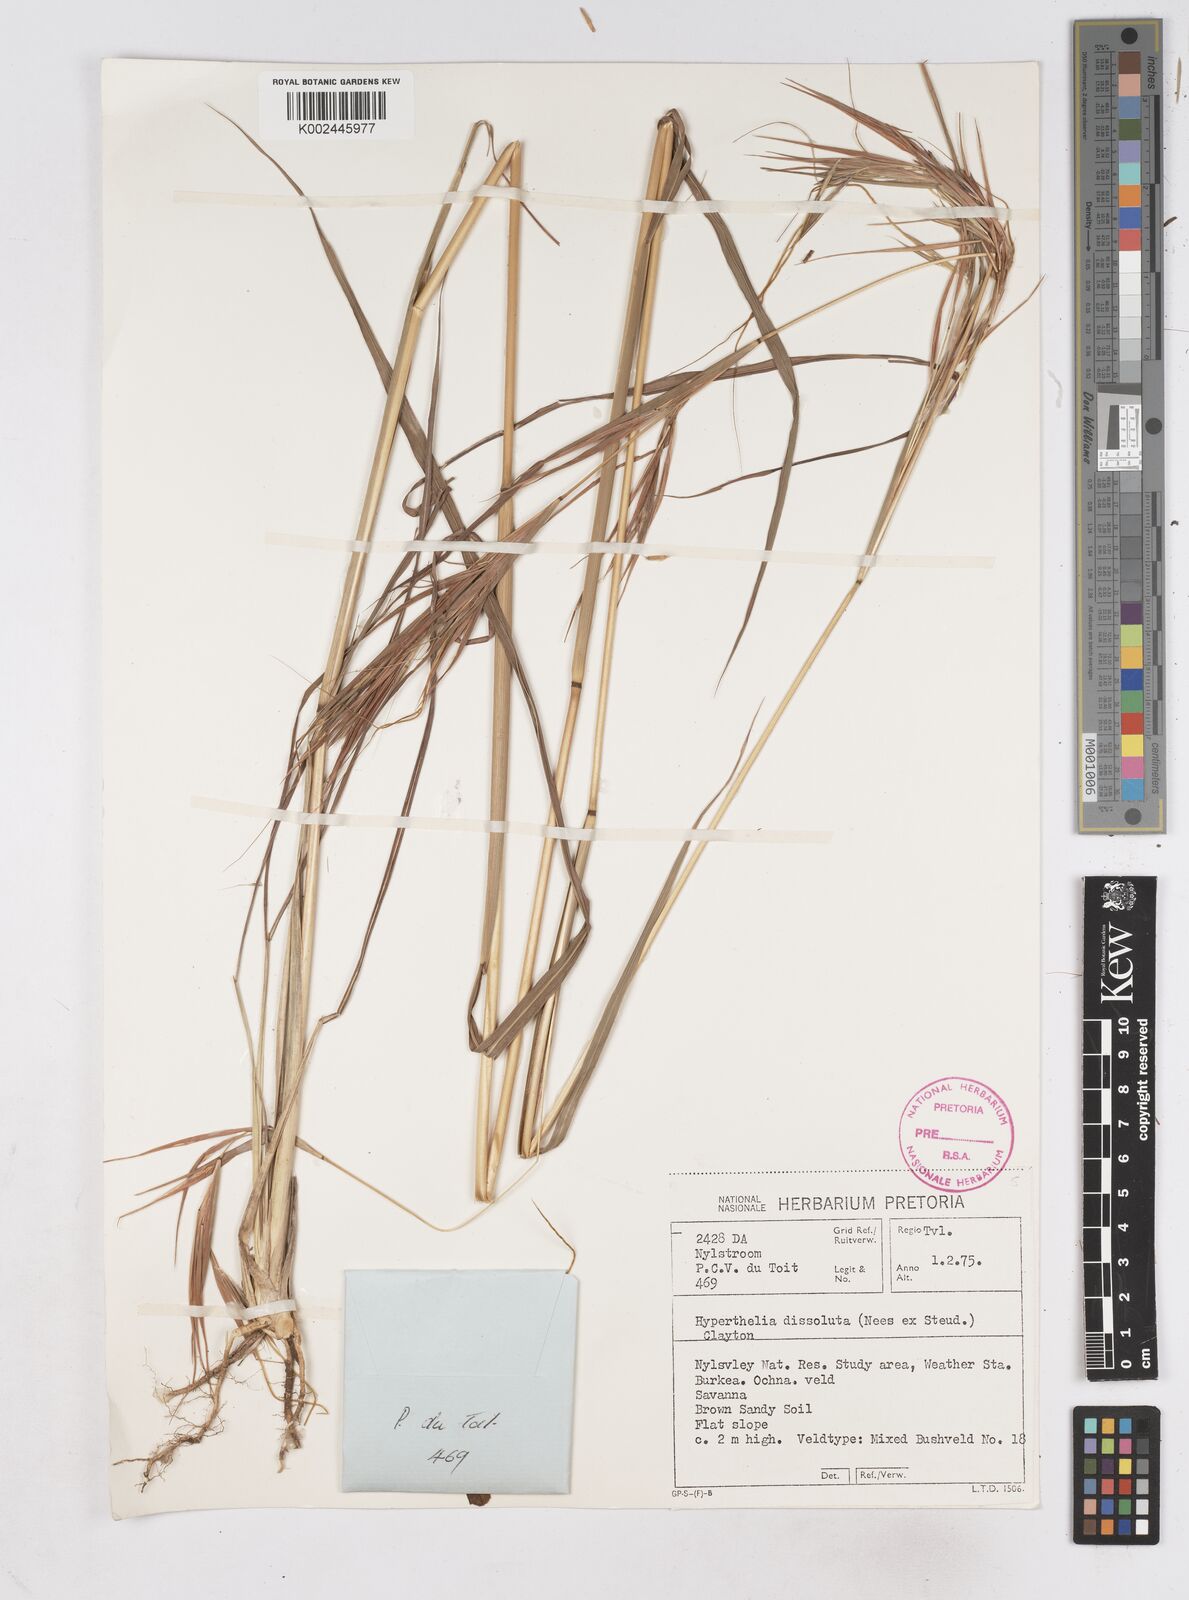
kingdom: Plantae
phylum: Tracheophyta
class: Liliopsida
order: Poales
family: Poaceae
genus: Hyperthelia
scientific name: Hyperthelia dissoluta
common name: Yellow thatching grass
